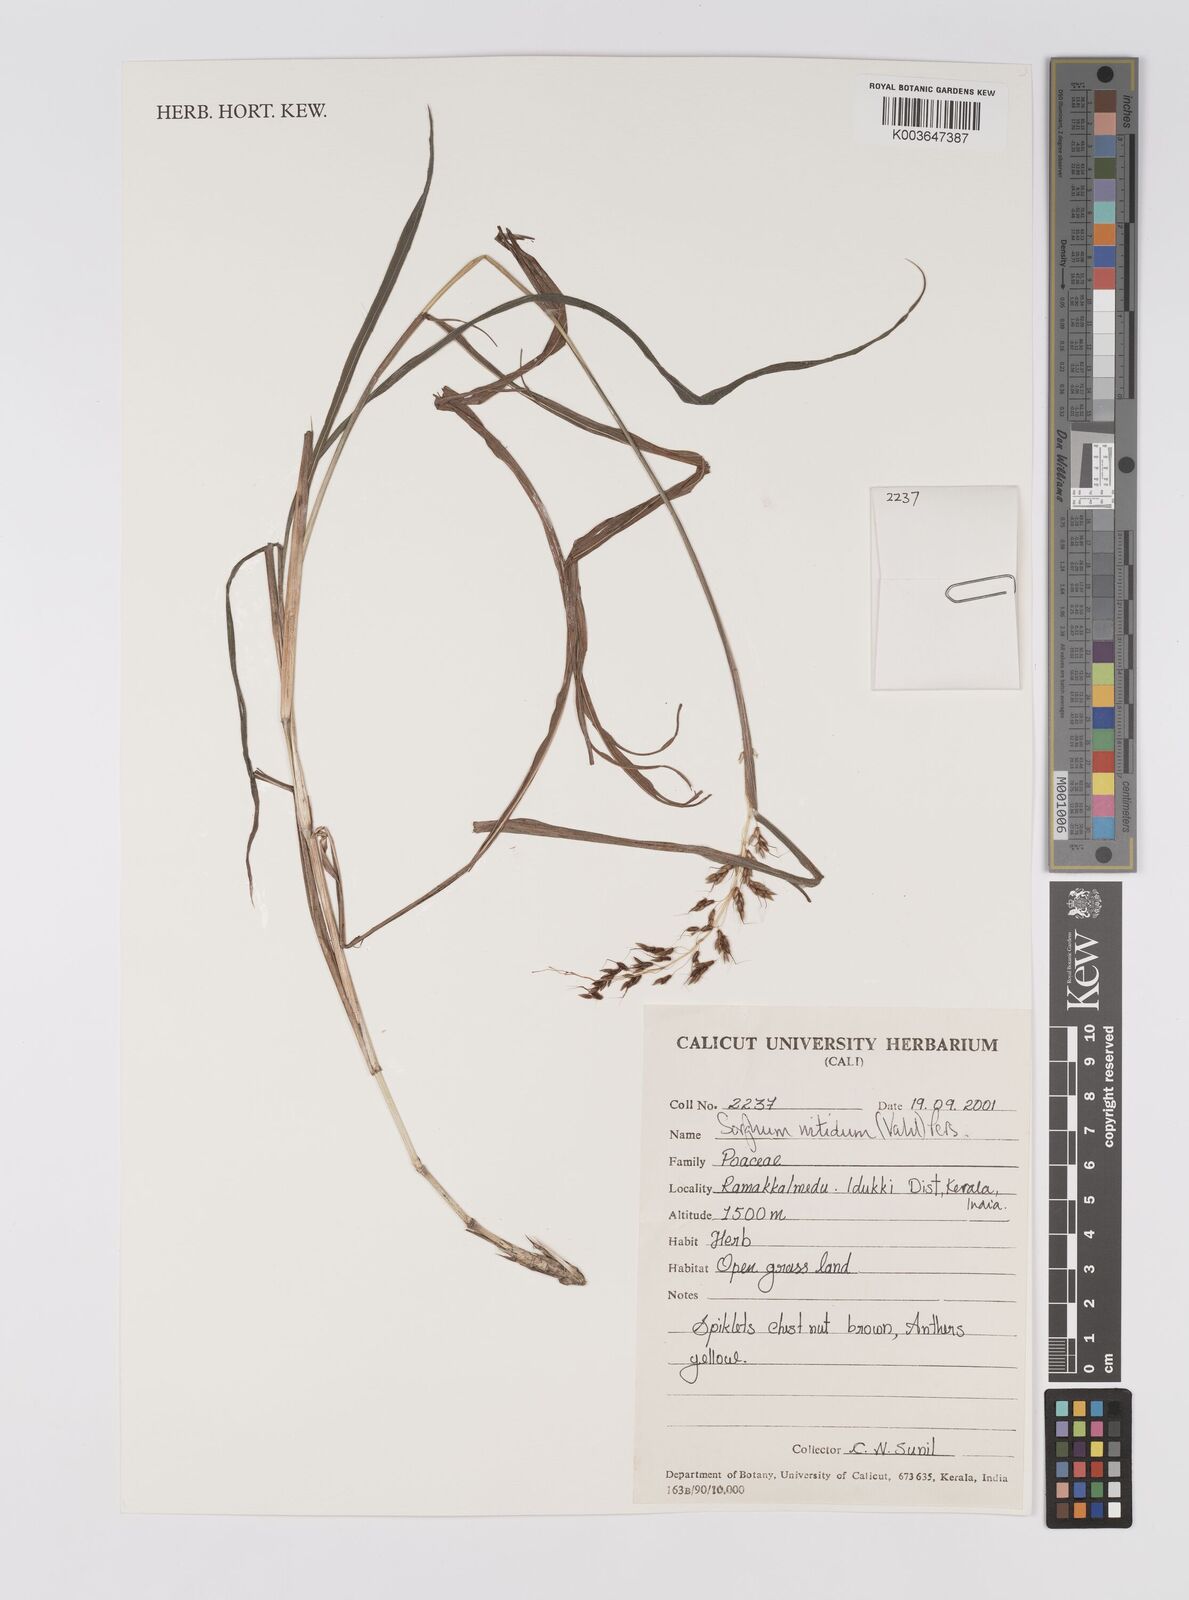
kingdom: Plantae
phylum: Tracheophyta
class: Liliopsida
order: Poales
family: Poaceae
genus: Sorghum
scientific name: Sorghum nitidum
